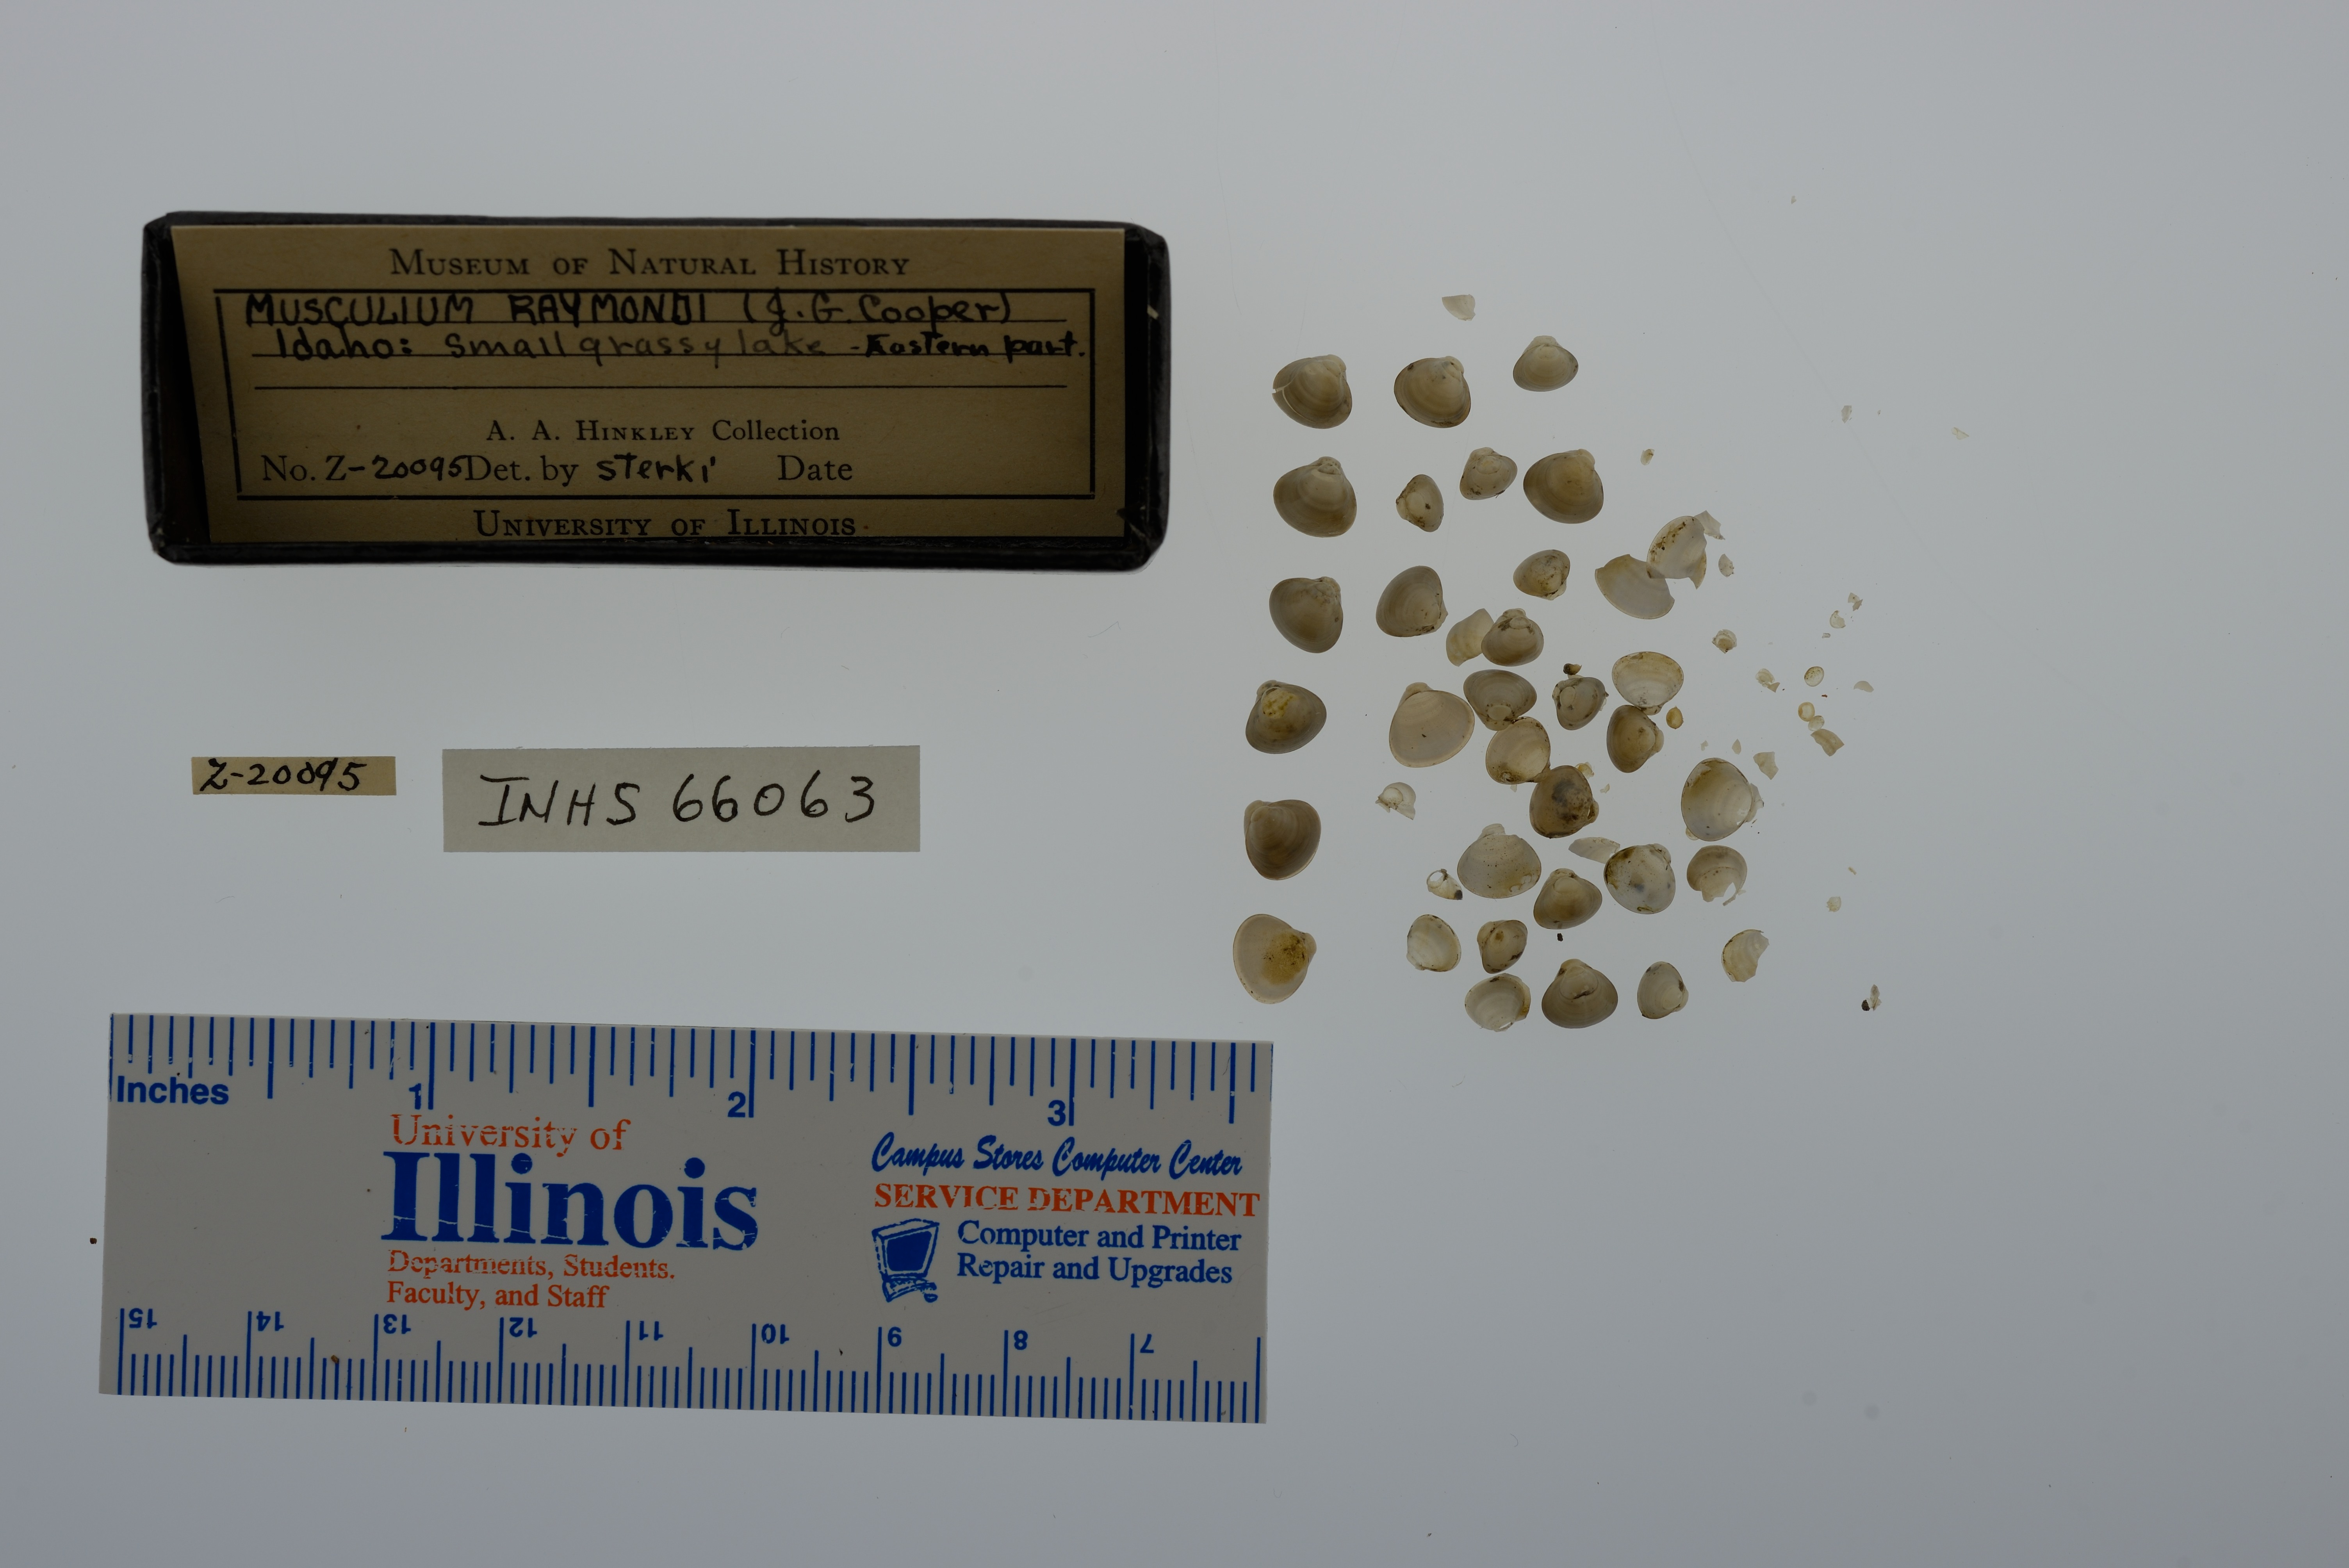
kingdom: Animalia
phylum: Mollusca
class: Bivalvia
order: Sphaeriida
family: Sphaeriidae
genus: Musculium
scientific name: Musculium lacustre
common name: Lake fingernailclam
